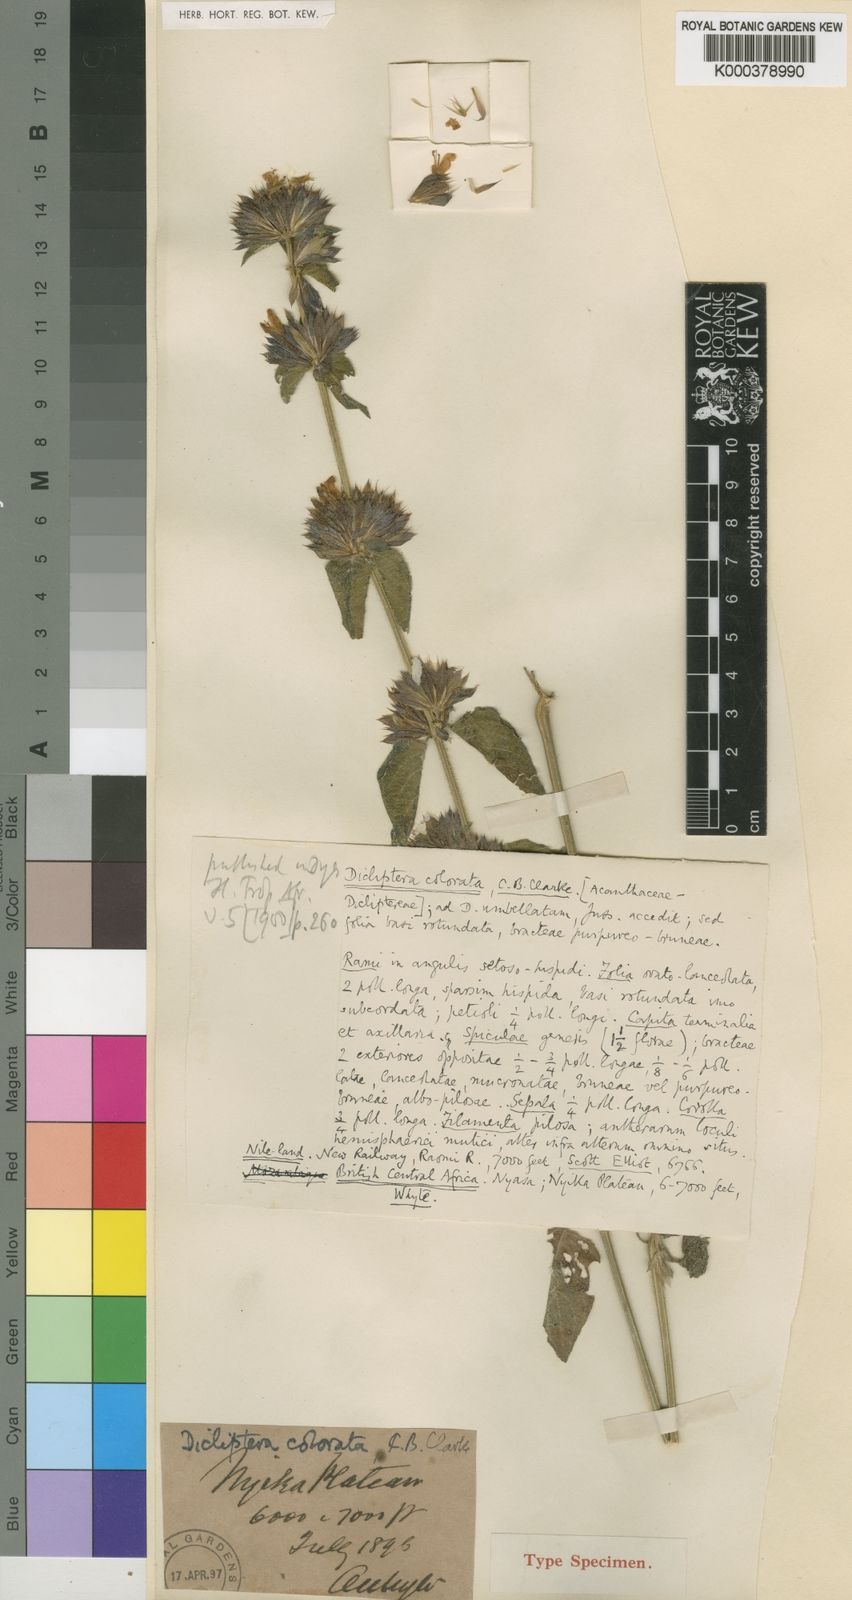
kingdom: Plantae
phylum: Tracheophyta
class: Magnoliopsida
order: Lamiales
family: Acanthaceae
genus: Dicliptera
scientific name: Dicliptera colorata
